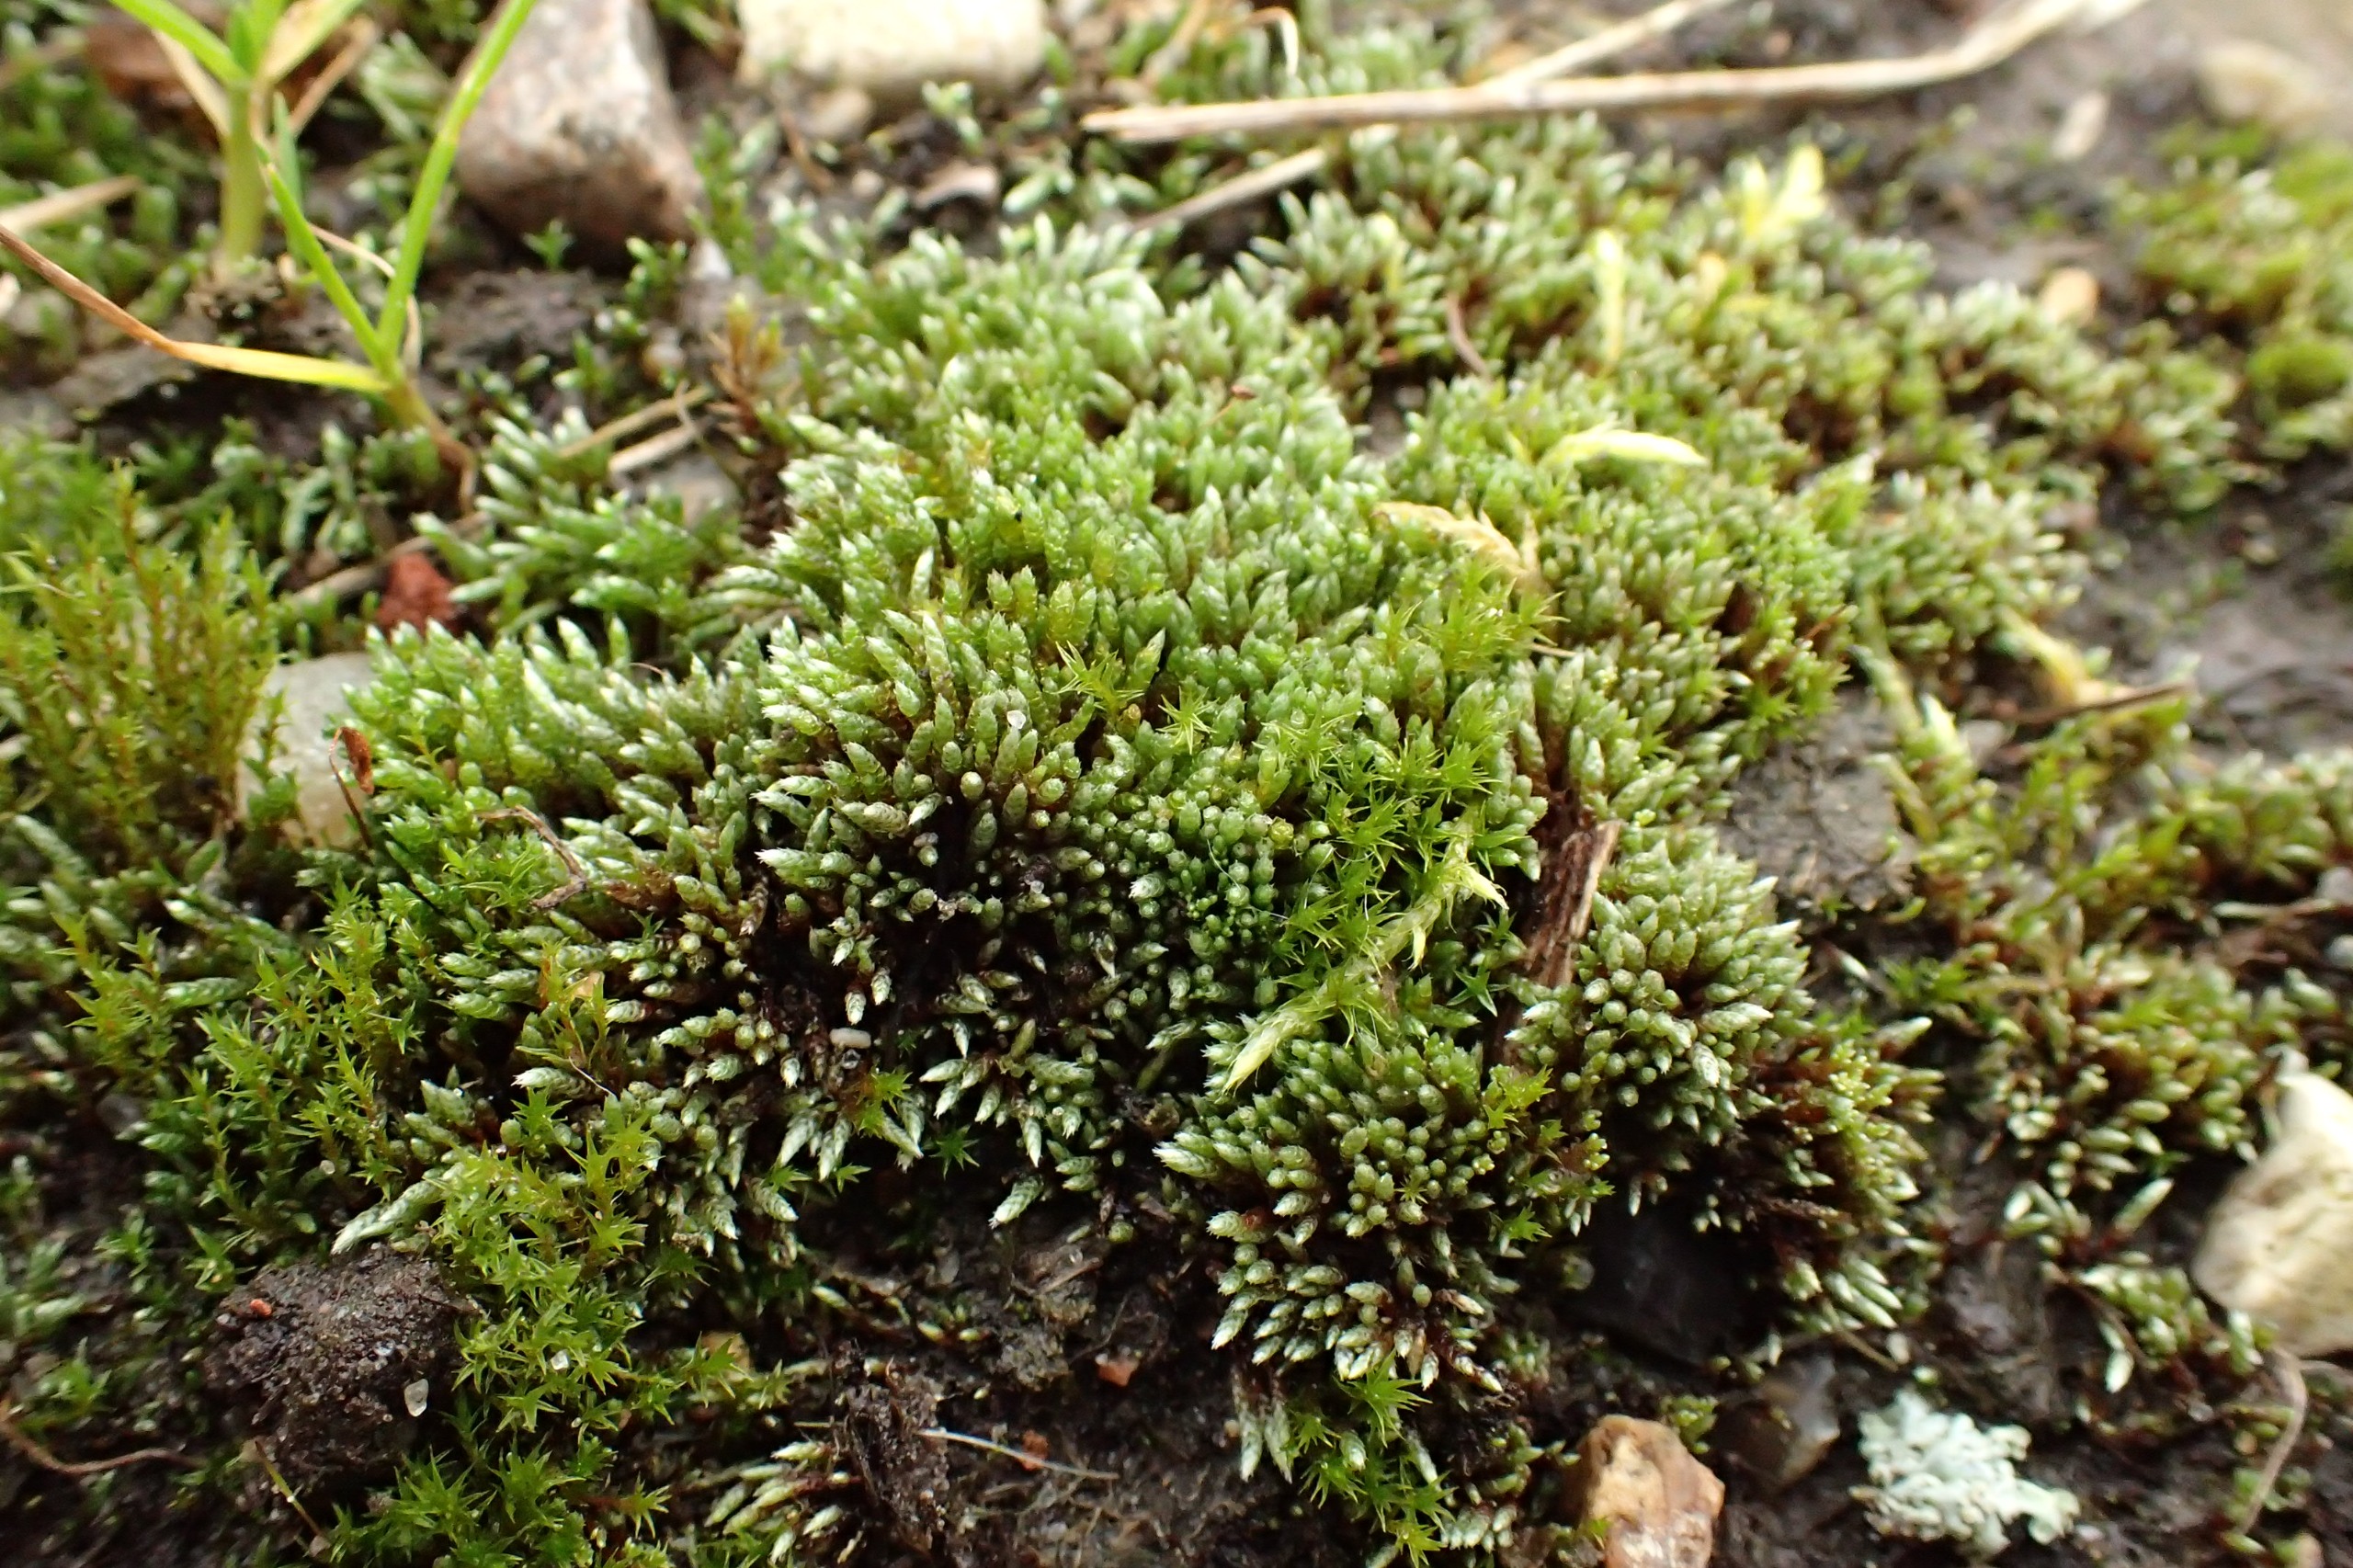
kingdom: Plantae
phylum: Bryophyta
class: Bryopsida
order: Bryales
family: Bryaceae
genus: Bryum
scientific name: Bryum argenteum
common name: Sølv-bryum
